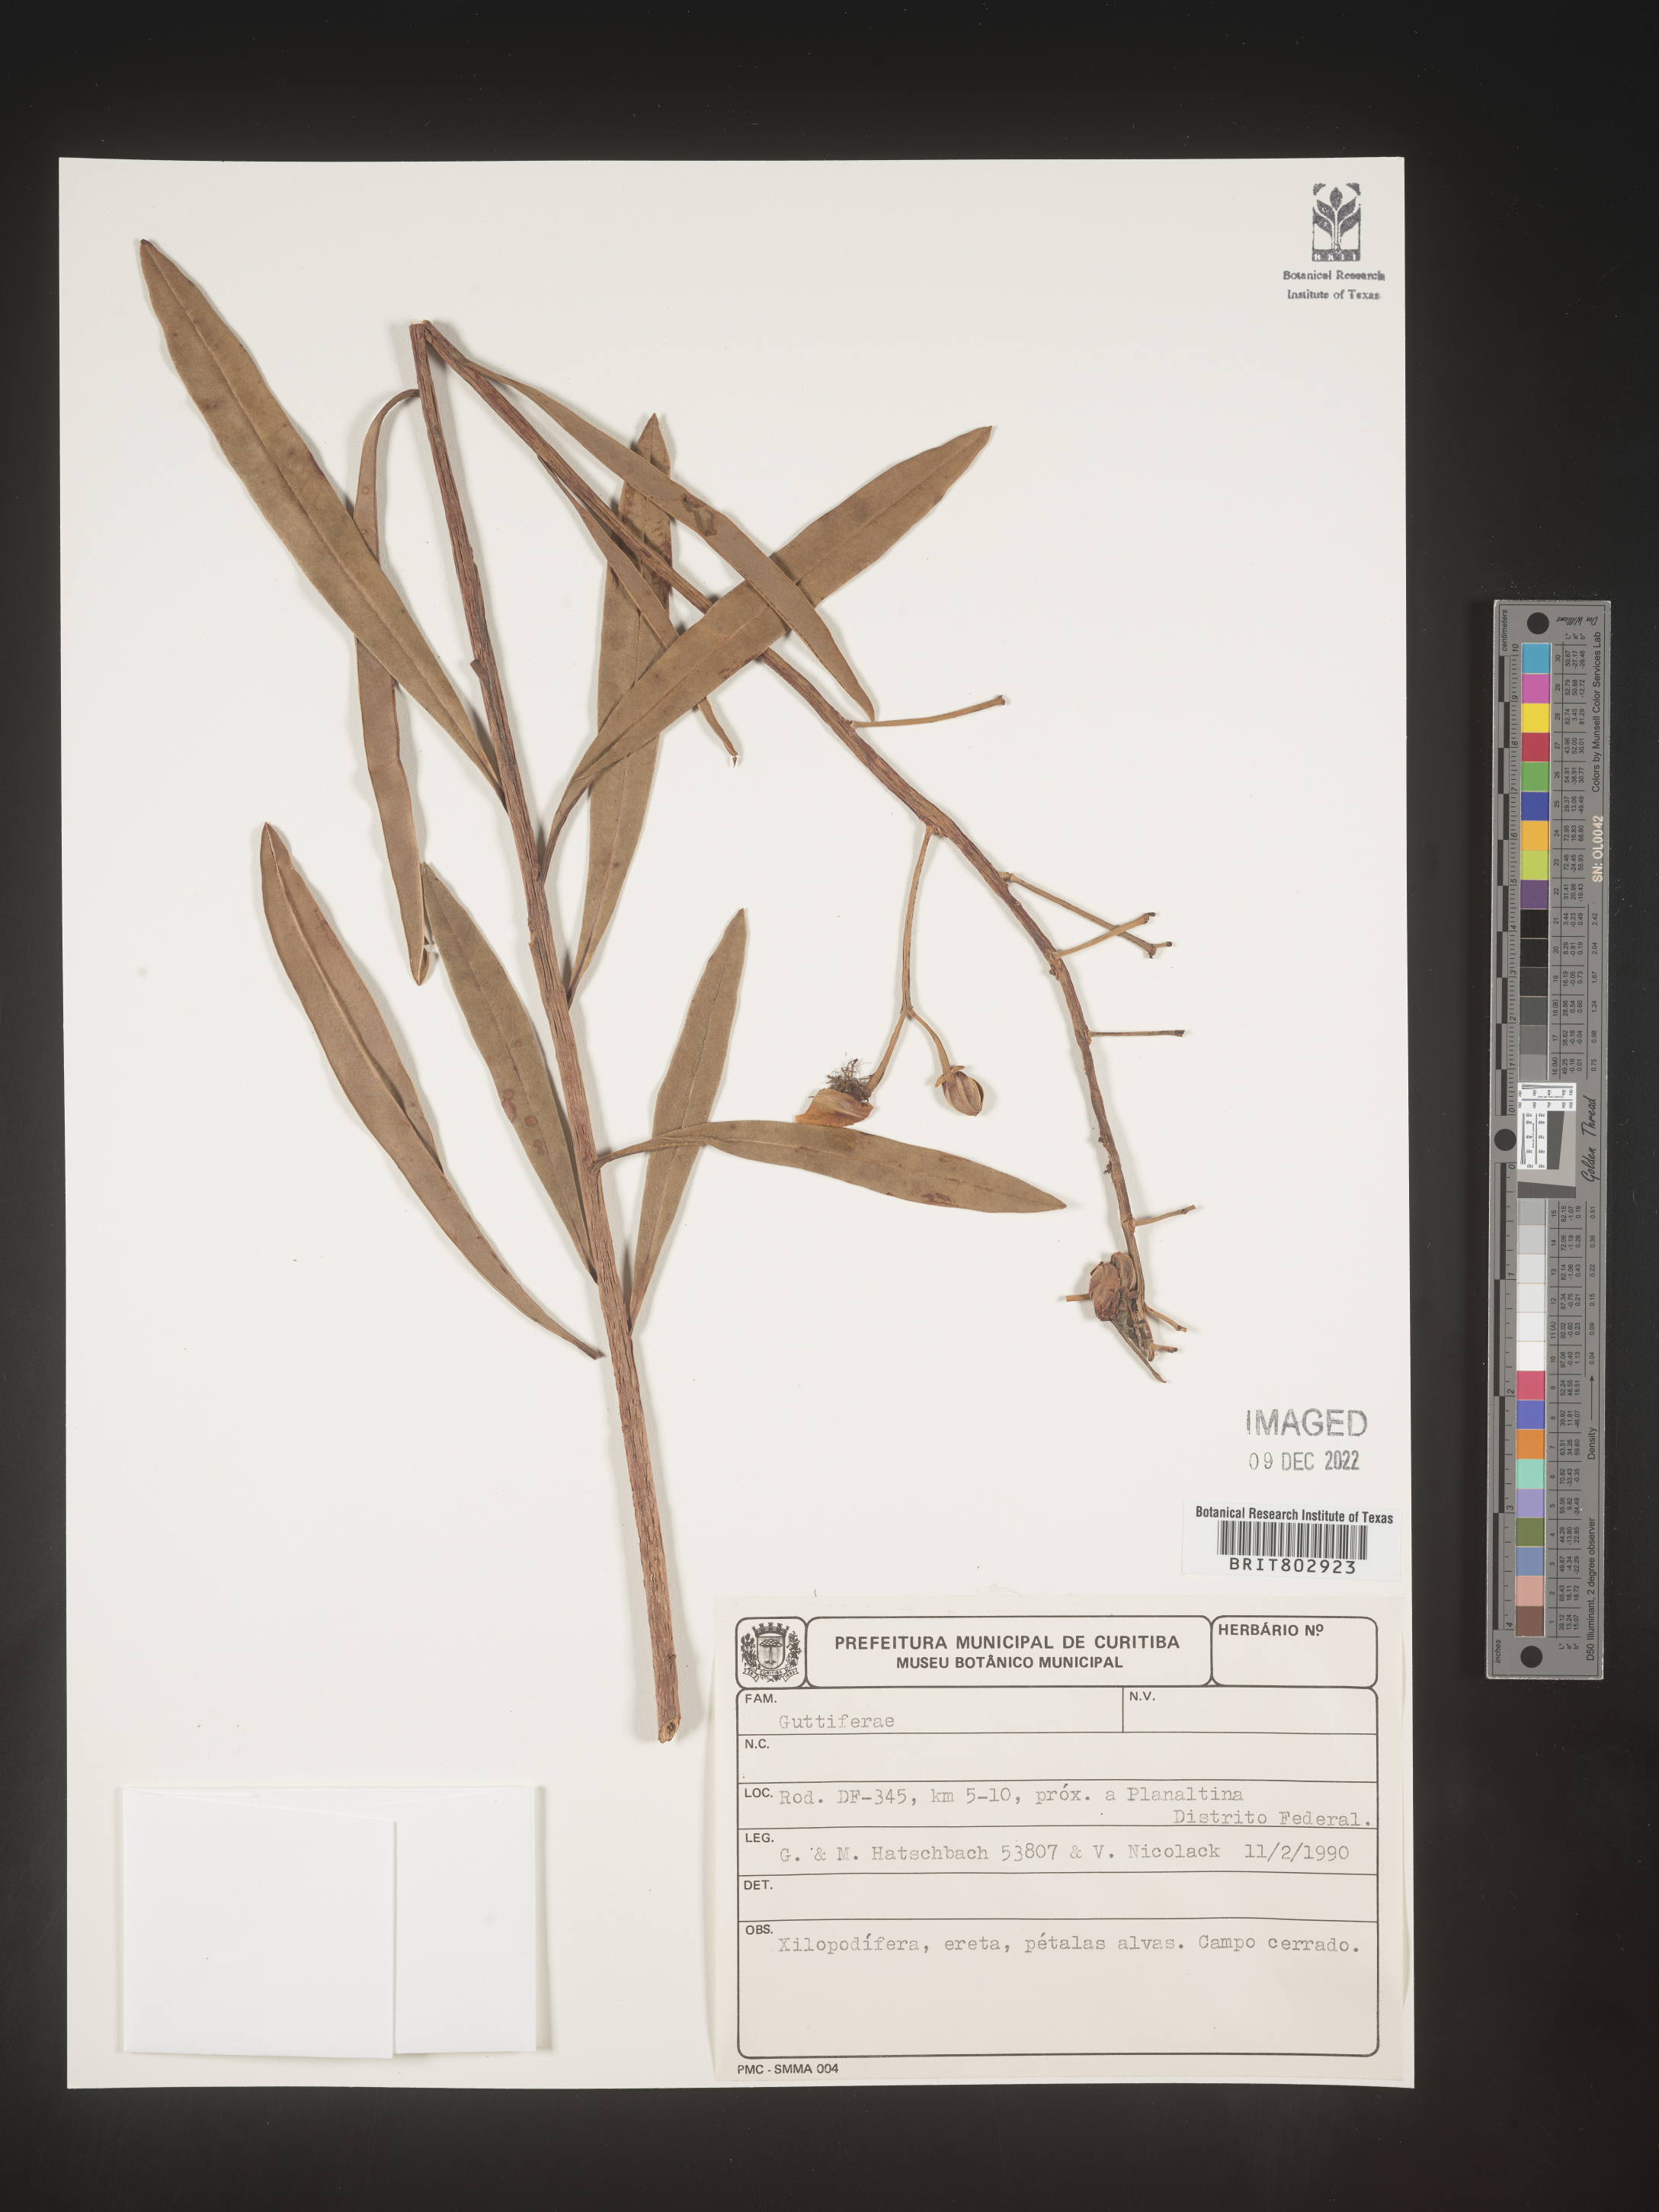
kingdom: Plantae
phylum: Tracheophyta
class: Magnoliopsida
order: Malpighiales
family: Calophyllaceae
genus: Kielmeyera
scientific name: Kielmeyera
